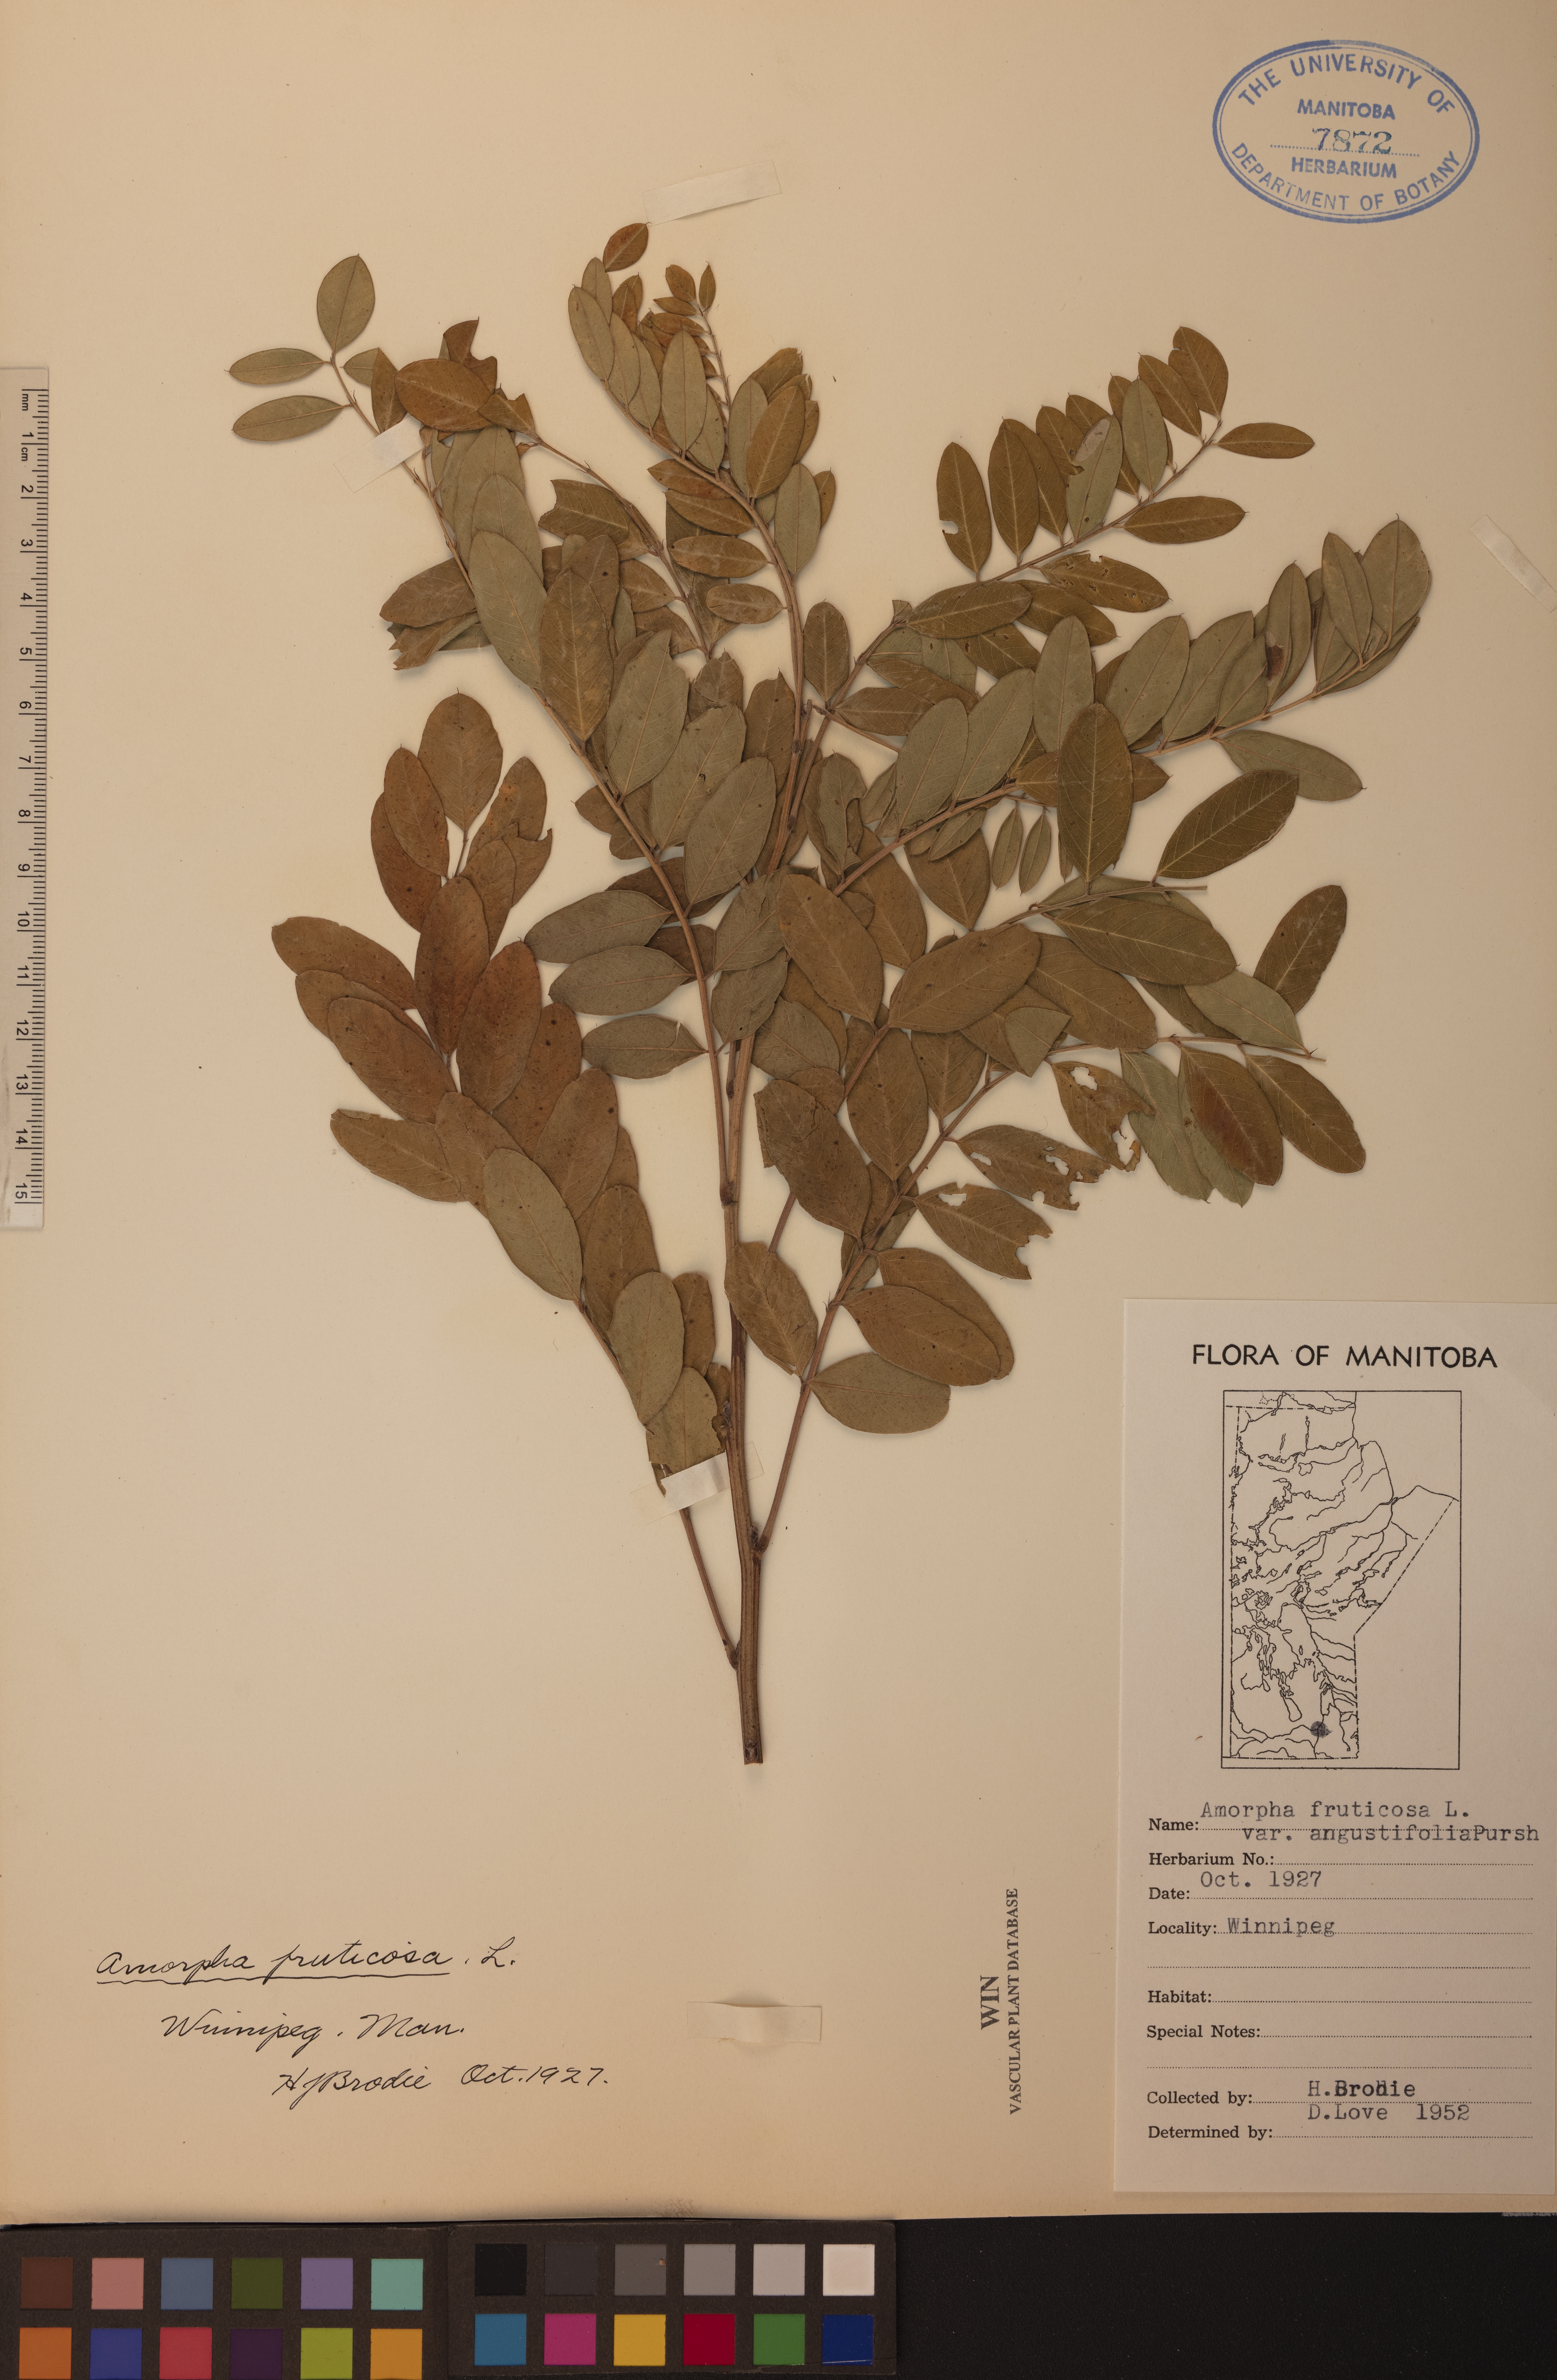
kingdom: Plantae
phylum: Tracheophyta
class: Magnoliopsida
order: Fabales
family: Fabaceae
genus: Amorpha
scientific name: Amorpha fruticosa
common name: False indigo
